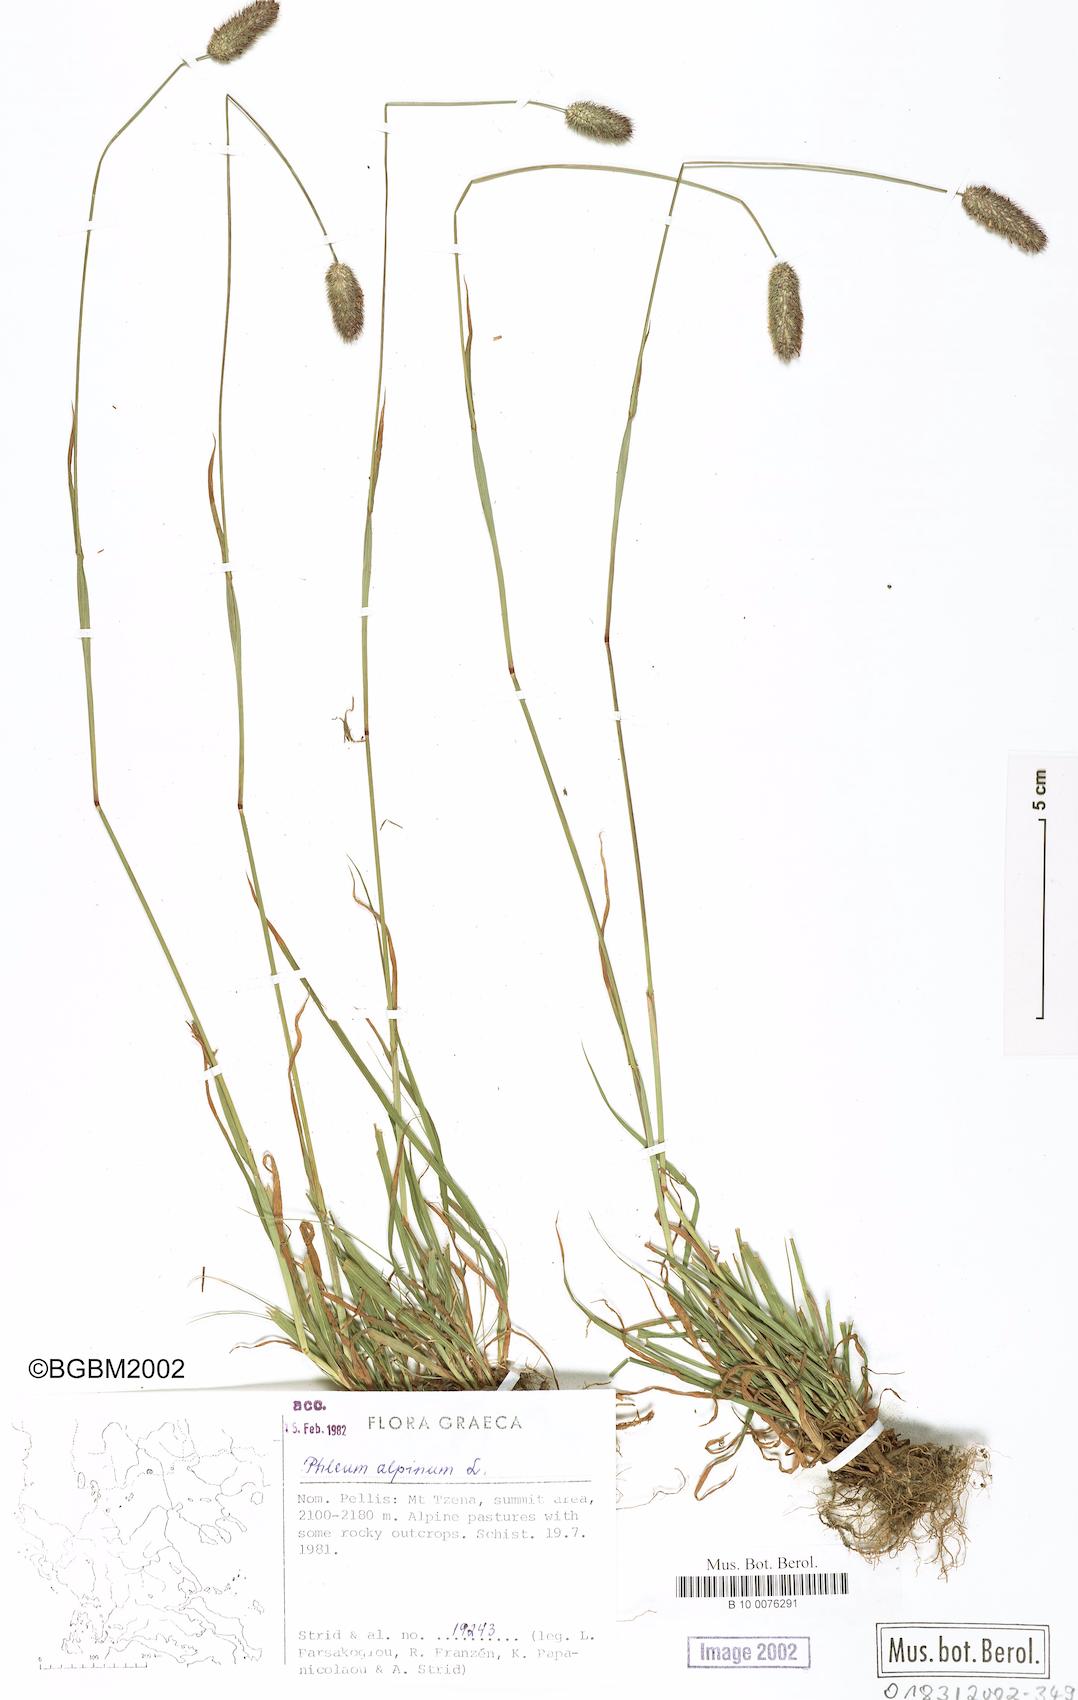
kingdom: Plantae
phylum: Tracheophyta
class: Liliopsida
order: Poales
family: Poaceae
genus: Phleum
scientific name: Phleum alpinum
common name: Alpine cat's-tail
